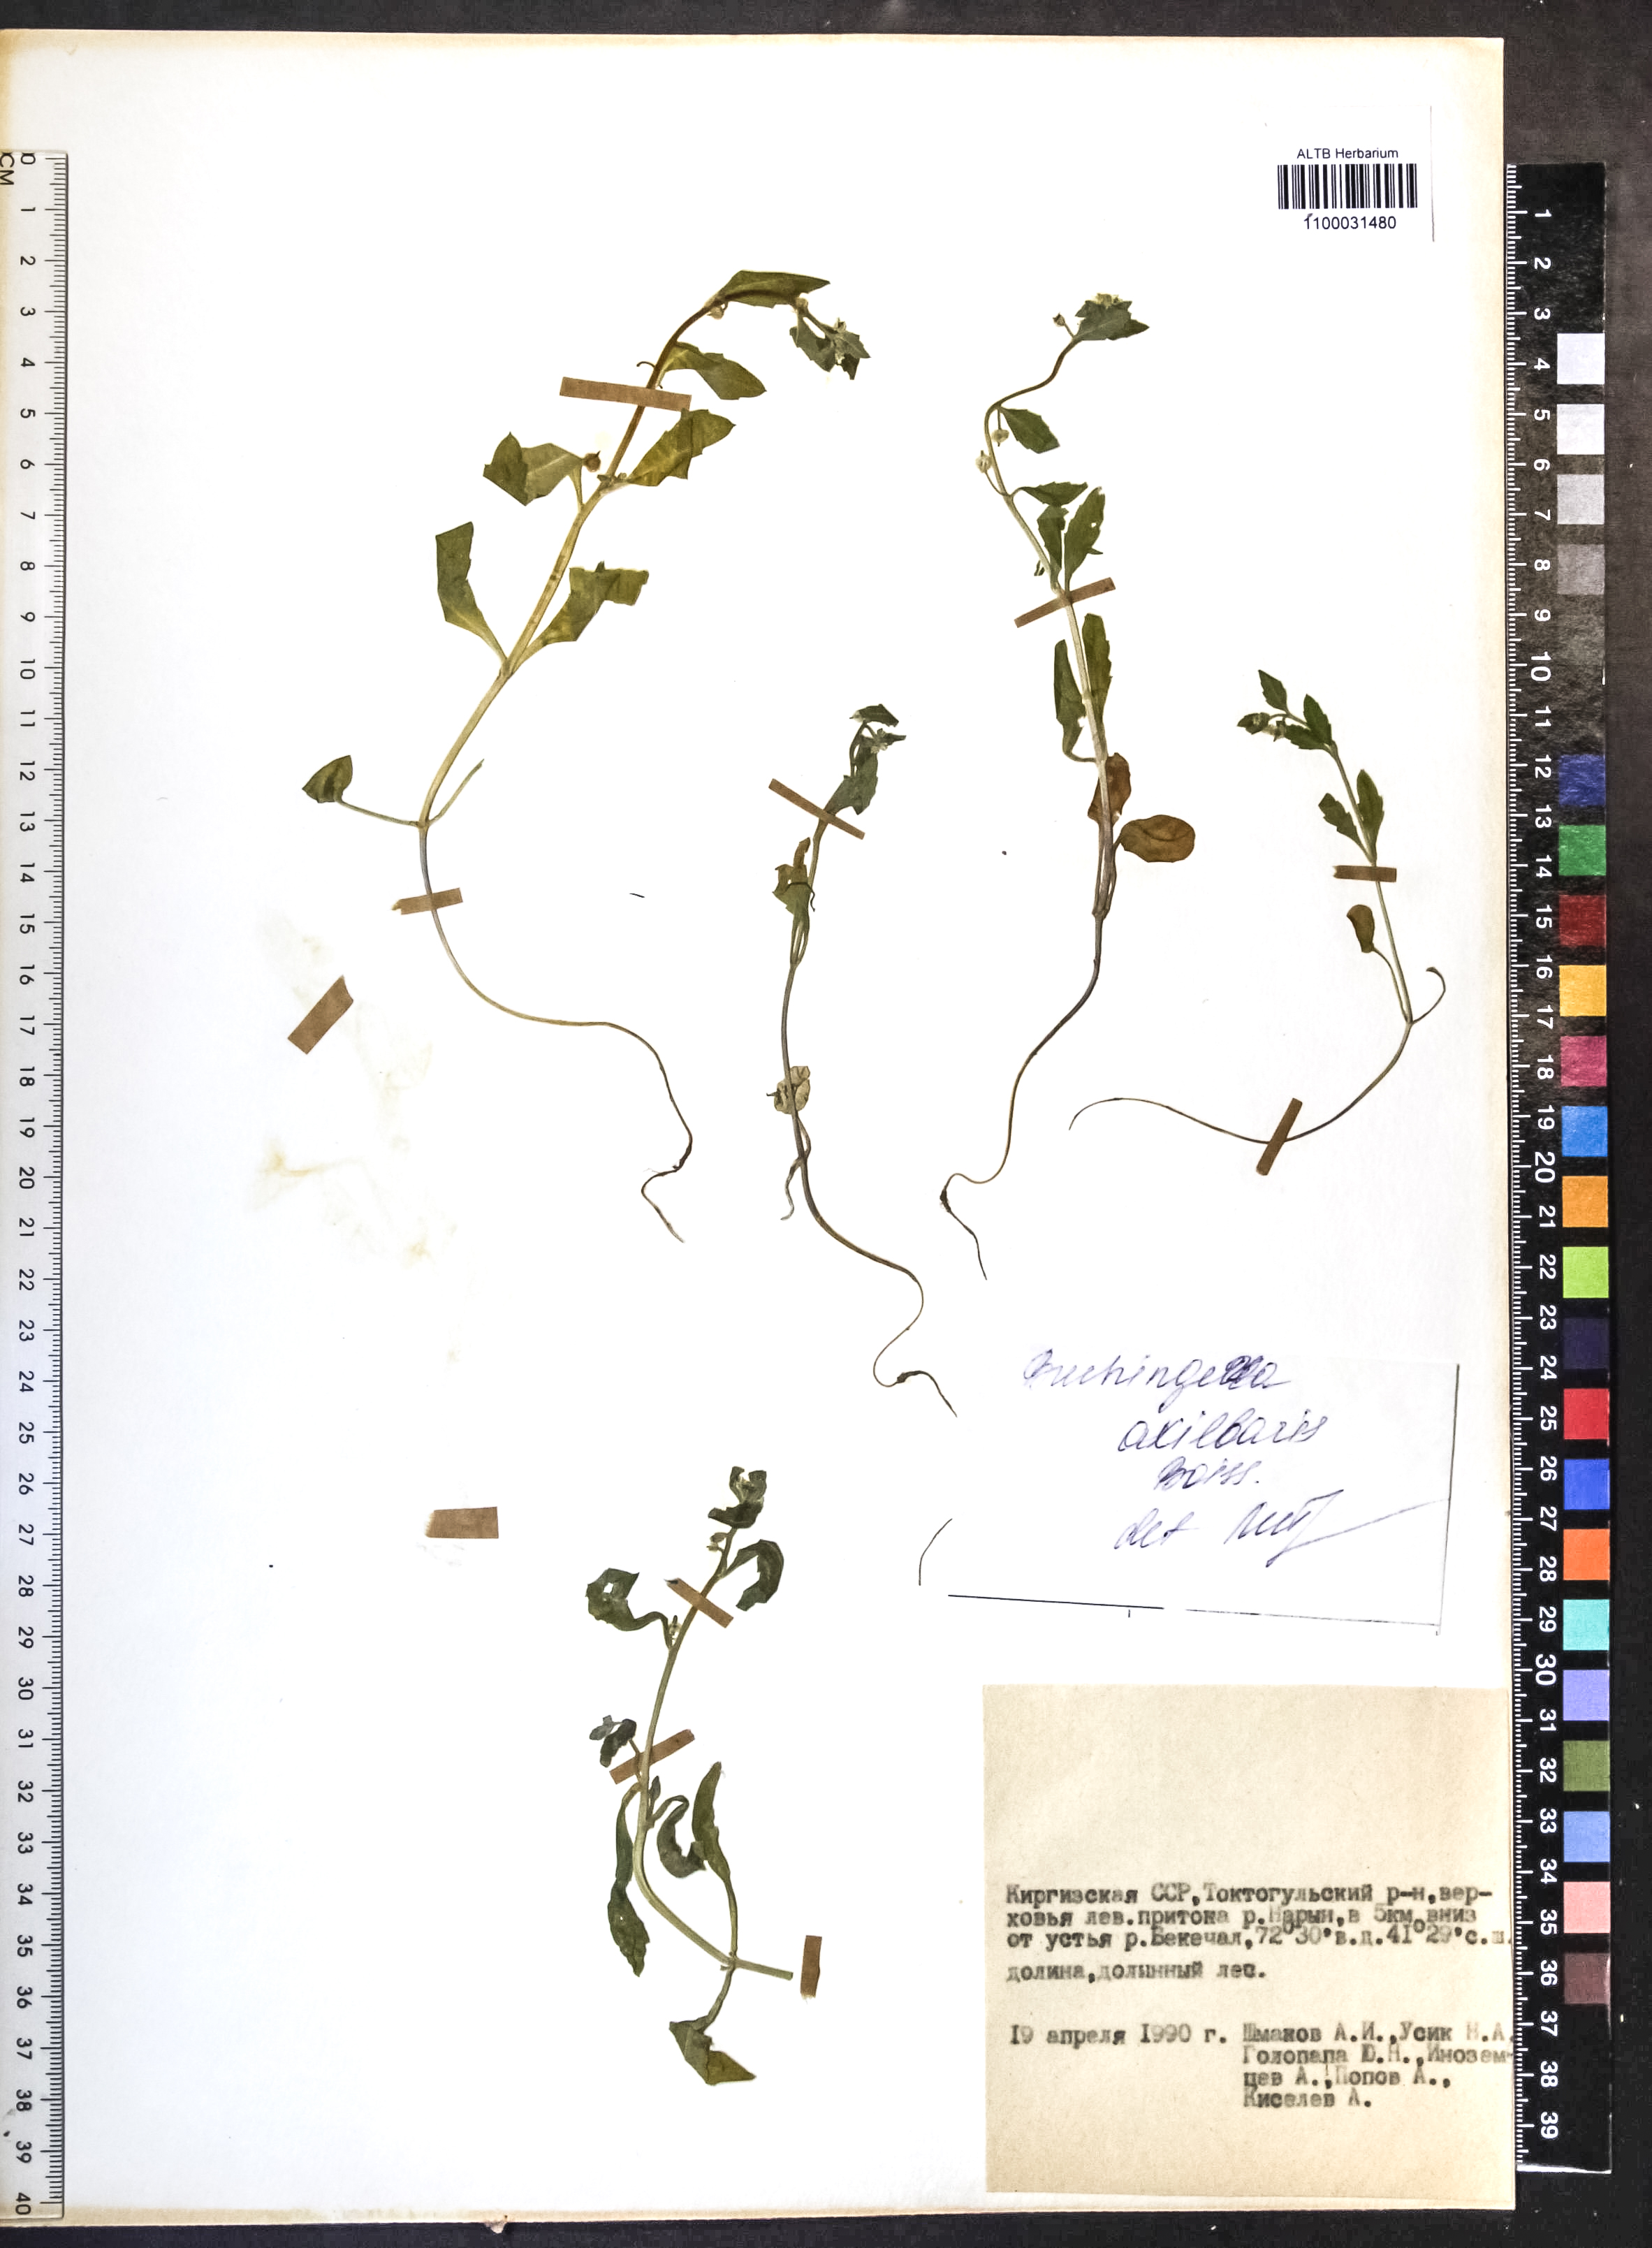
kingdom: Plantae
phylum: Tracheophyta
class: Magnoliopsida
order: Brassicales
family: Brassicaceae
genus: Asperuginoides
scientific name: Asperuginoides axillaris
